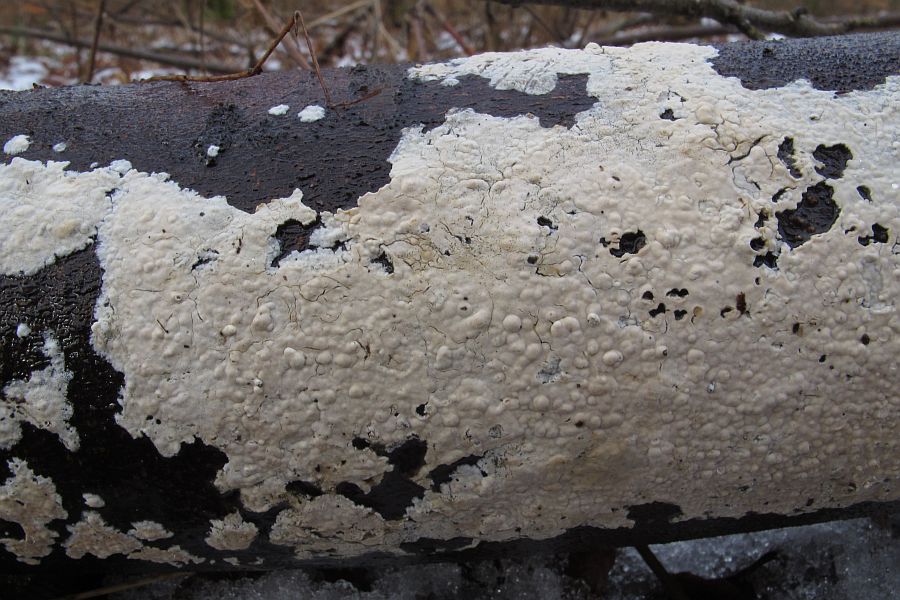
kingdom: Fungi
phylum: Basidiomycota
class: Agaricomycetes
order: Agaricales
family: Physalacriaceae
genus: Cylindrobasidium
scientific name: Cylindrobasidium evolvens
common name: sprækkehinde
